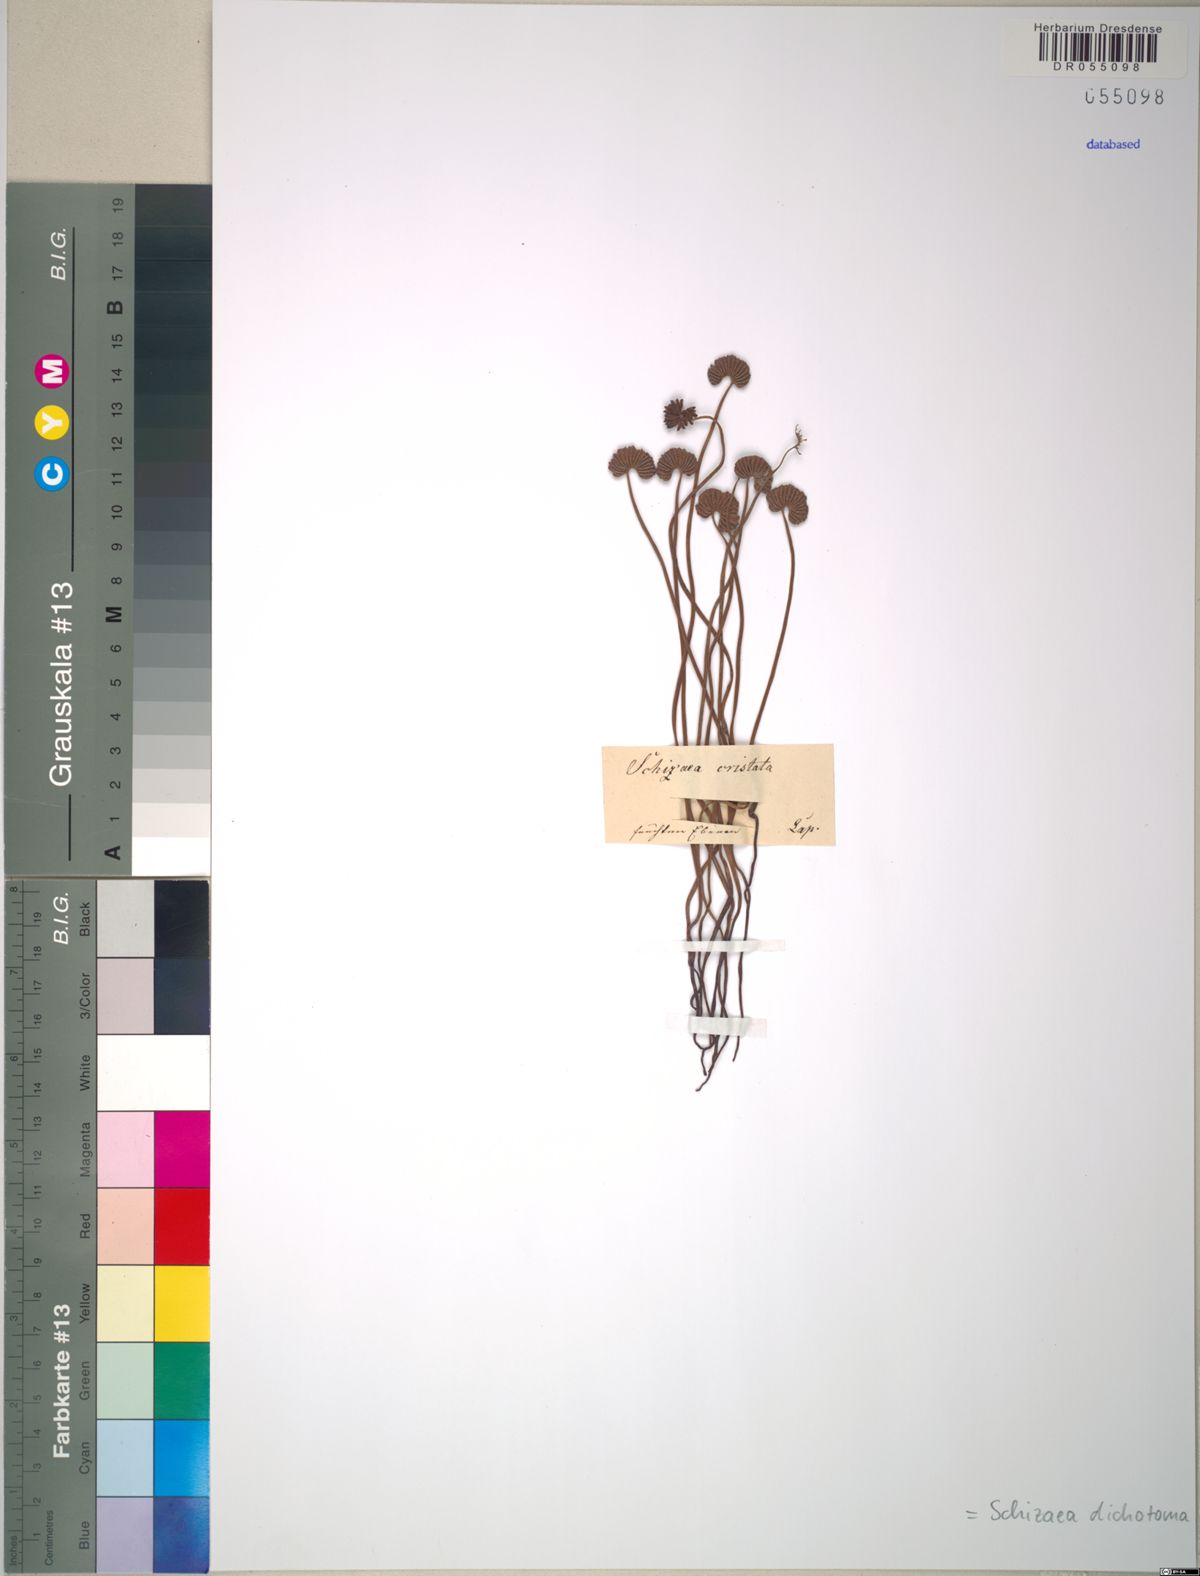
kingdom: Plantae
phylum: Tracheophyta
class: Polypodiopsida
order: Schizaeales
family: Schizaeaceae
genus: Schizaea
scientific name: Schizaea dichotoma
